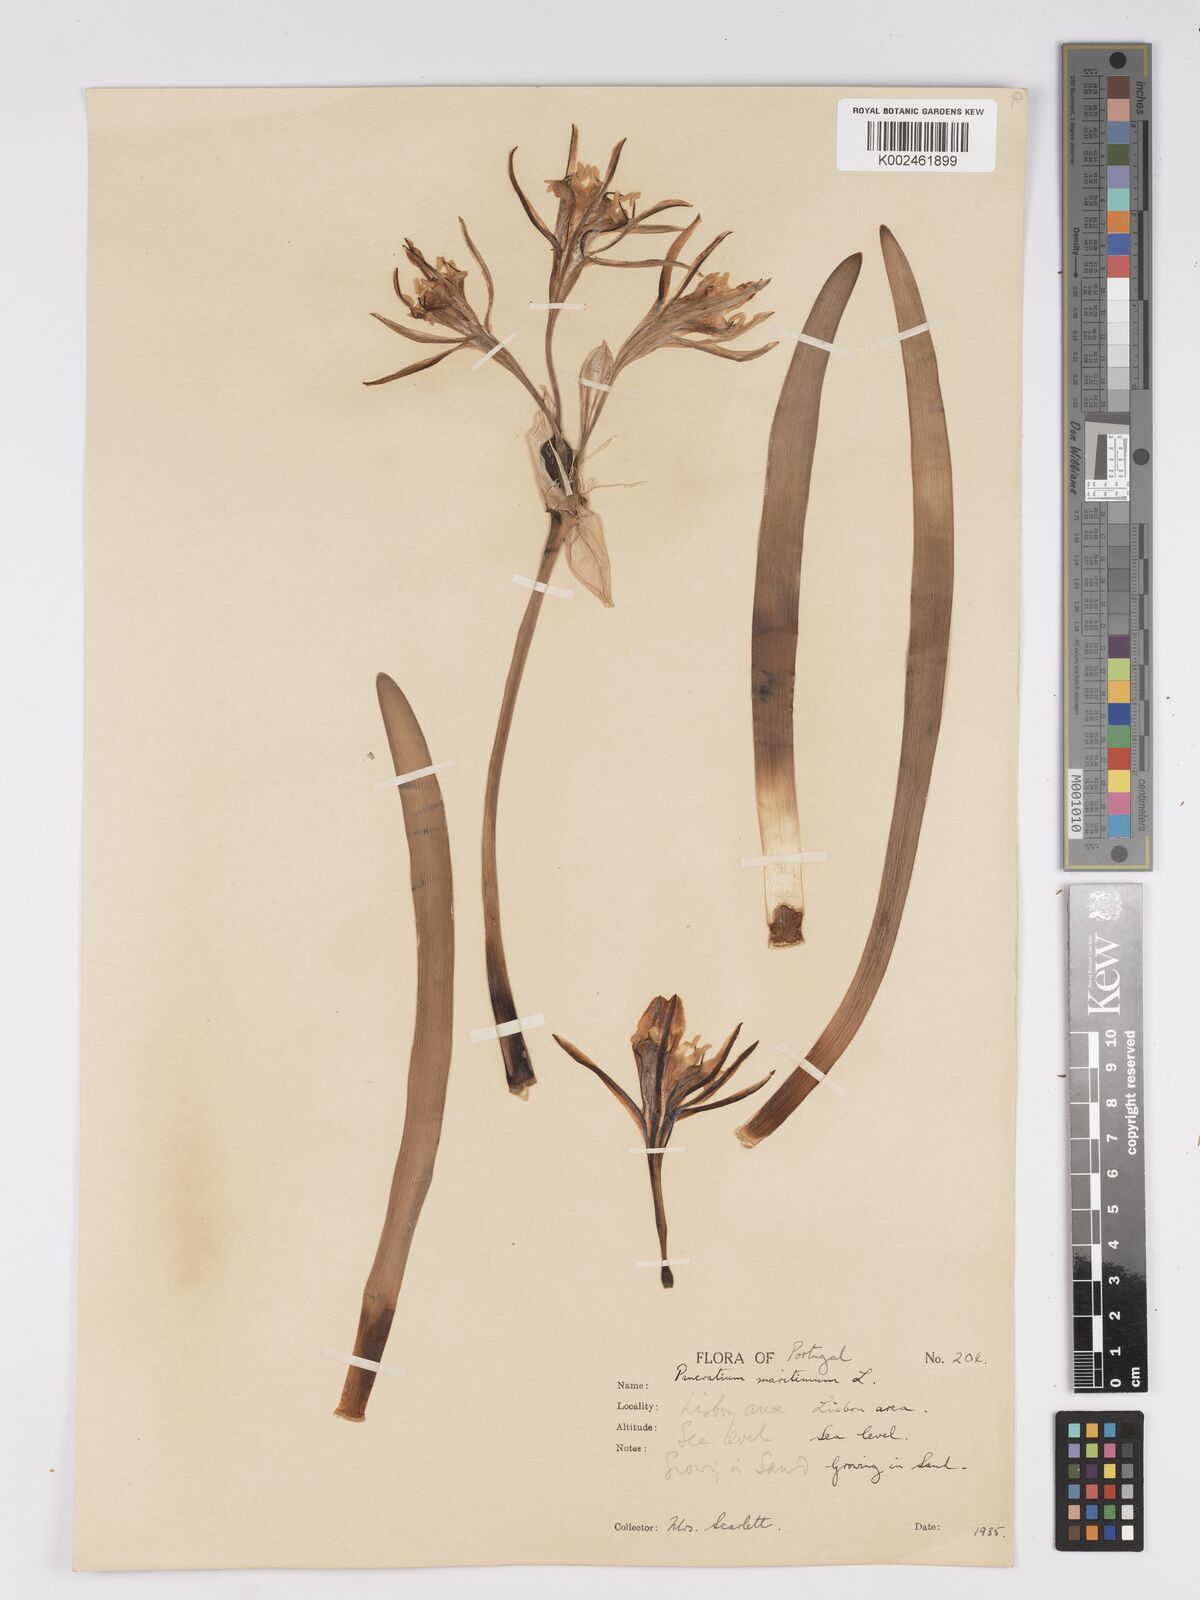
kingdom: Plantae
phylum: Tracheophyta
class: Liliopsida
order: Asparagales
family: Amaryllidaceae
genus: Pancratium
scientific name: Pancratium maritimum
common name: Sea-daffodil
